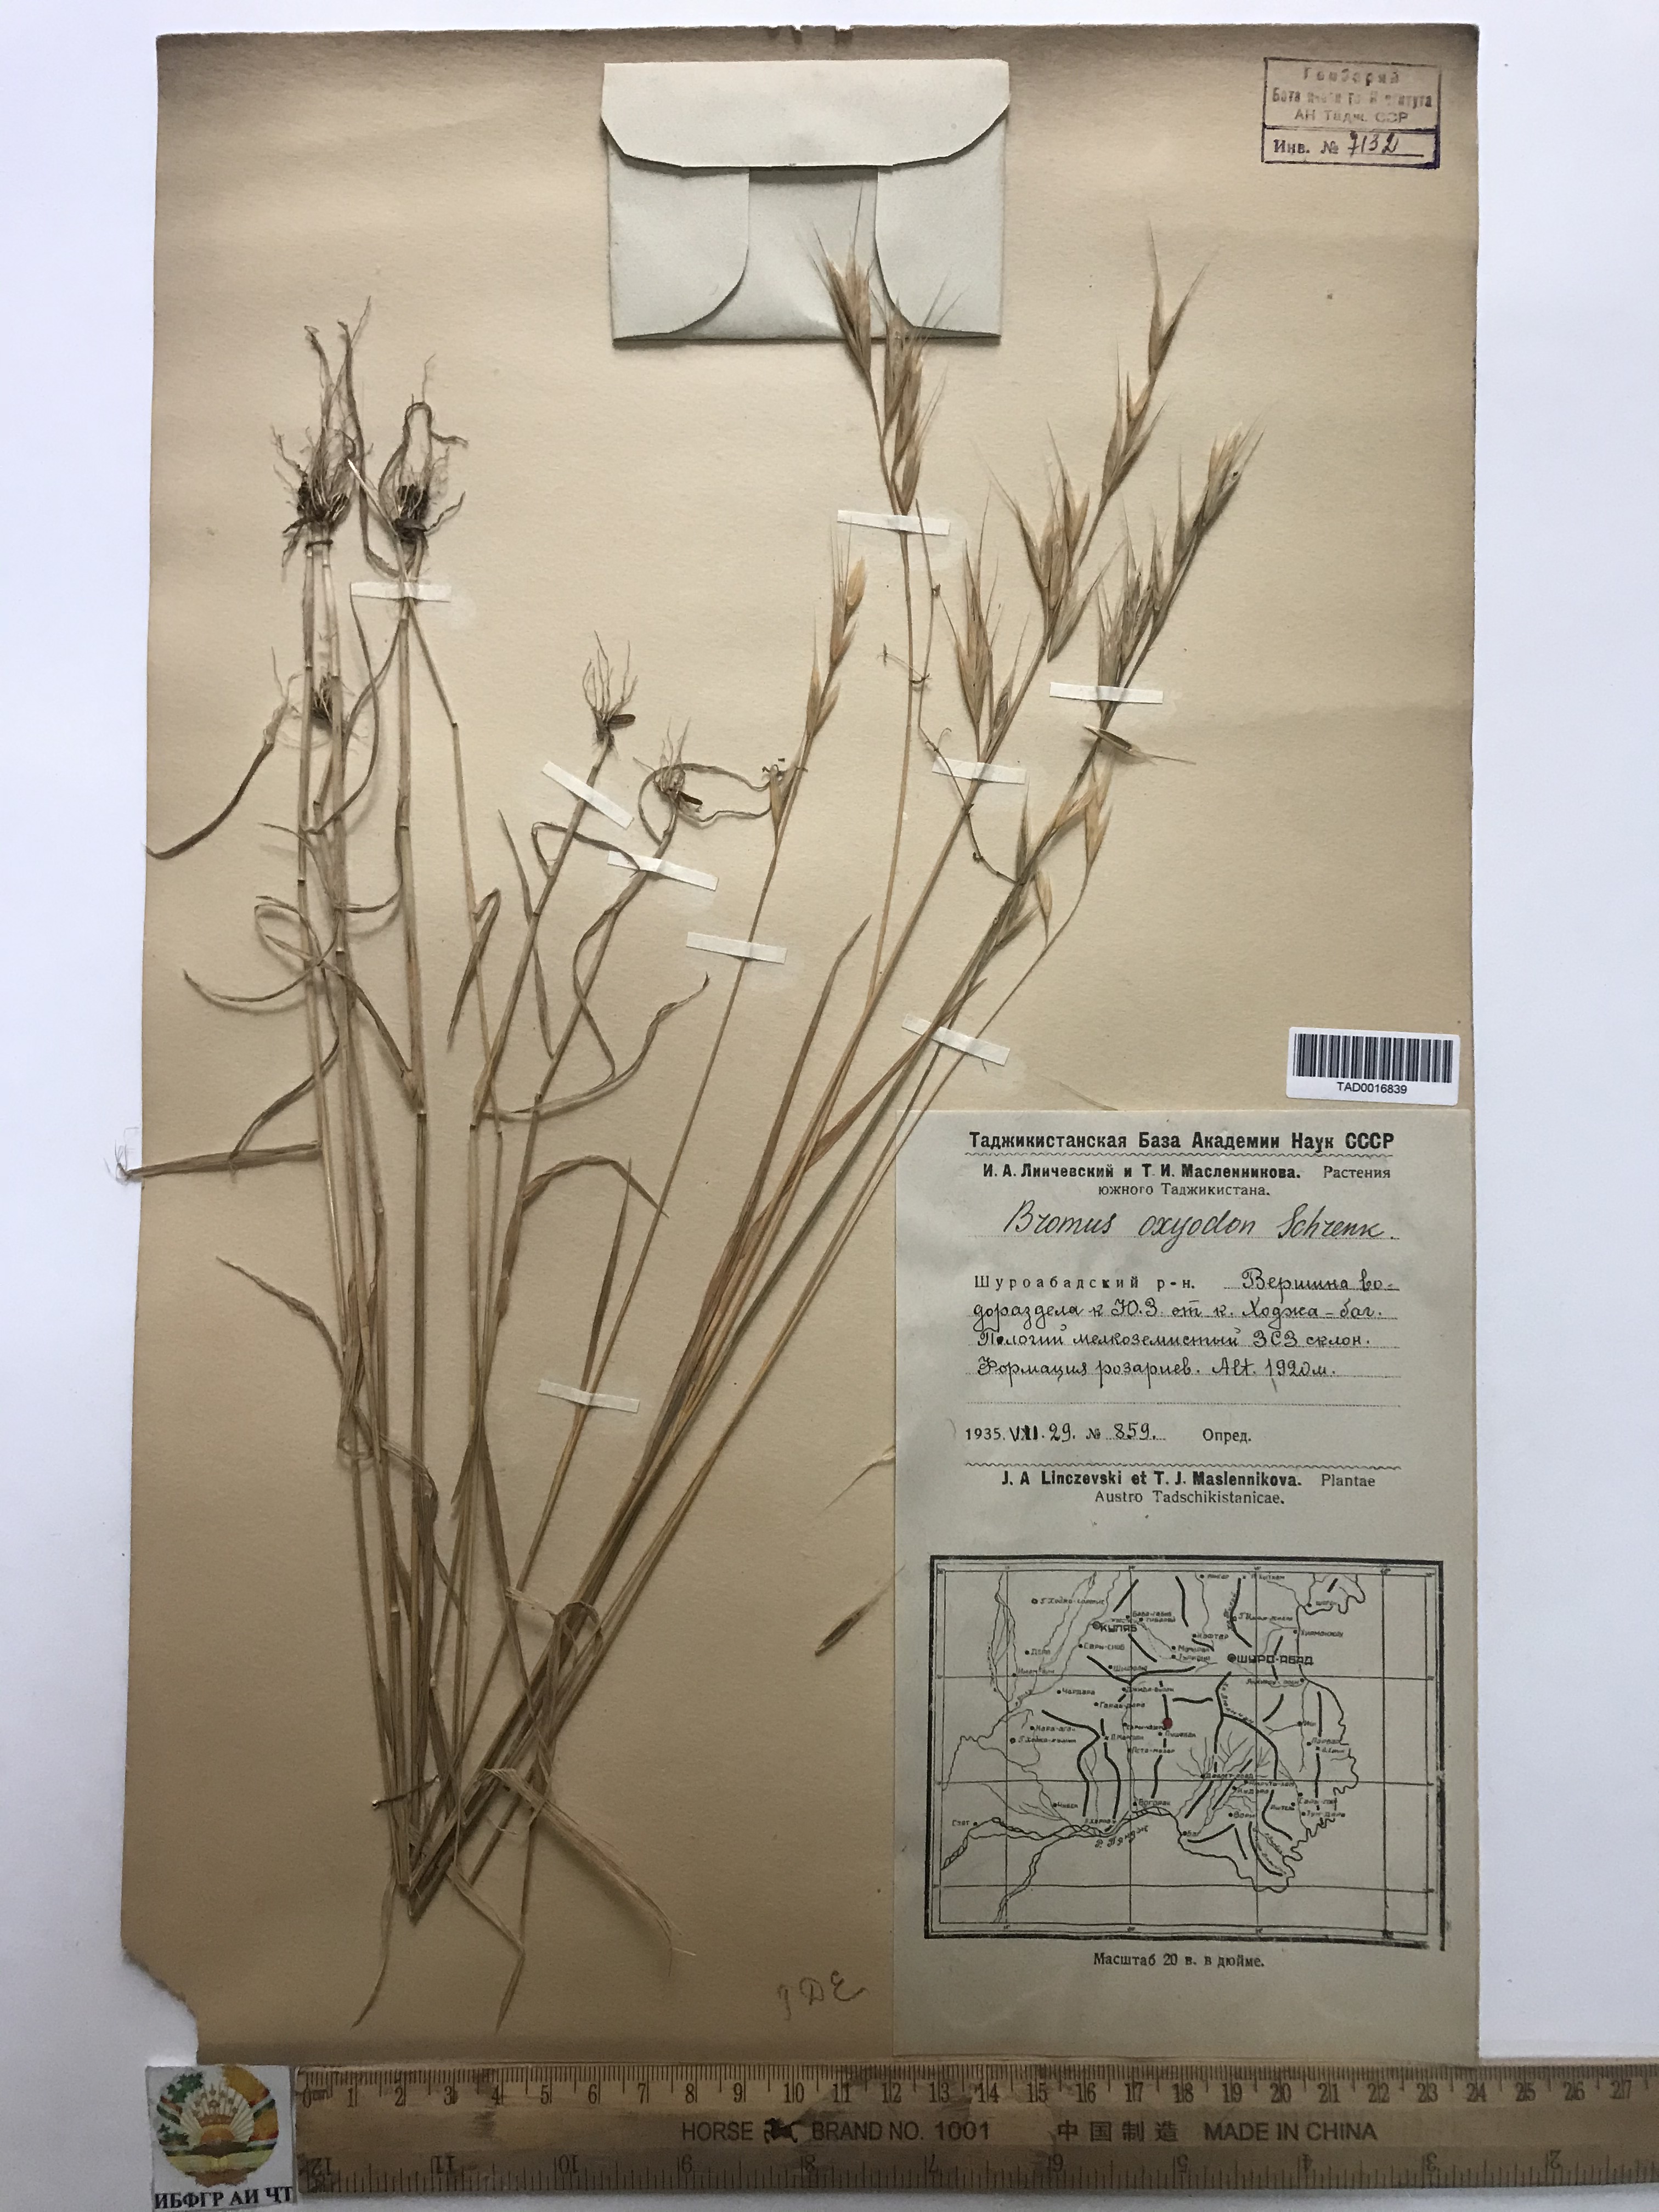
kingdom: Plantae
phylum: Tracheophyta
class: Liliopsida
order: Poales
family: Poaceae
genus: Bromus
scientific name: Bromus oxyodon
